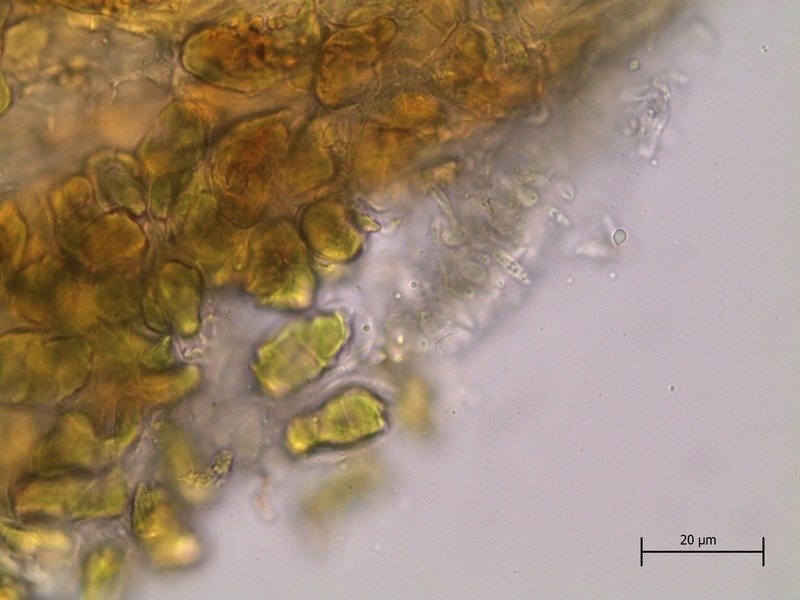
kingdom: Fungi
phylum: Ascomycota
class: Sordariomycetes
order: Diaporthales
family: Gnomoniaceae
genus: Asteroma
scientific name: Asteroma alneum
